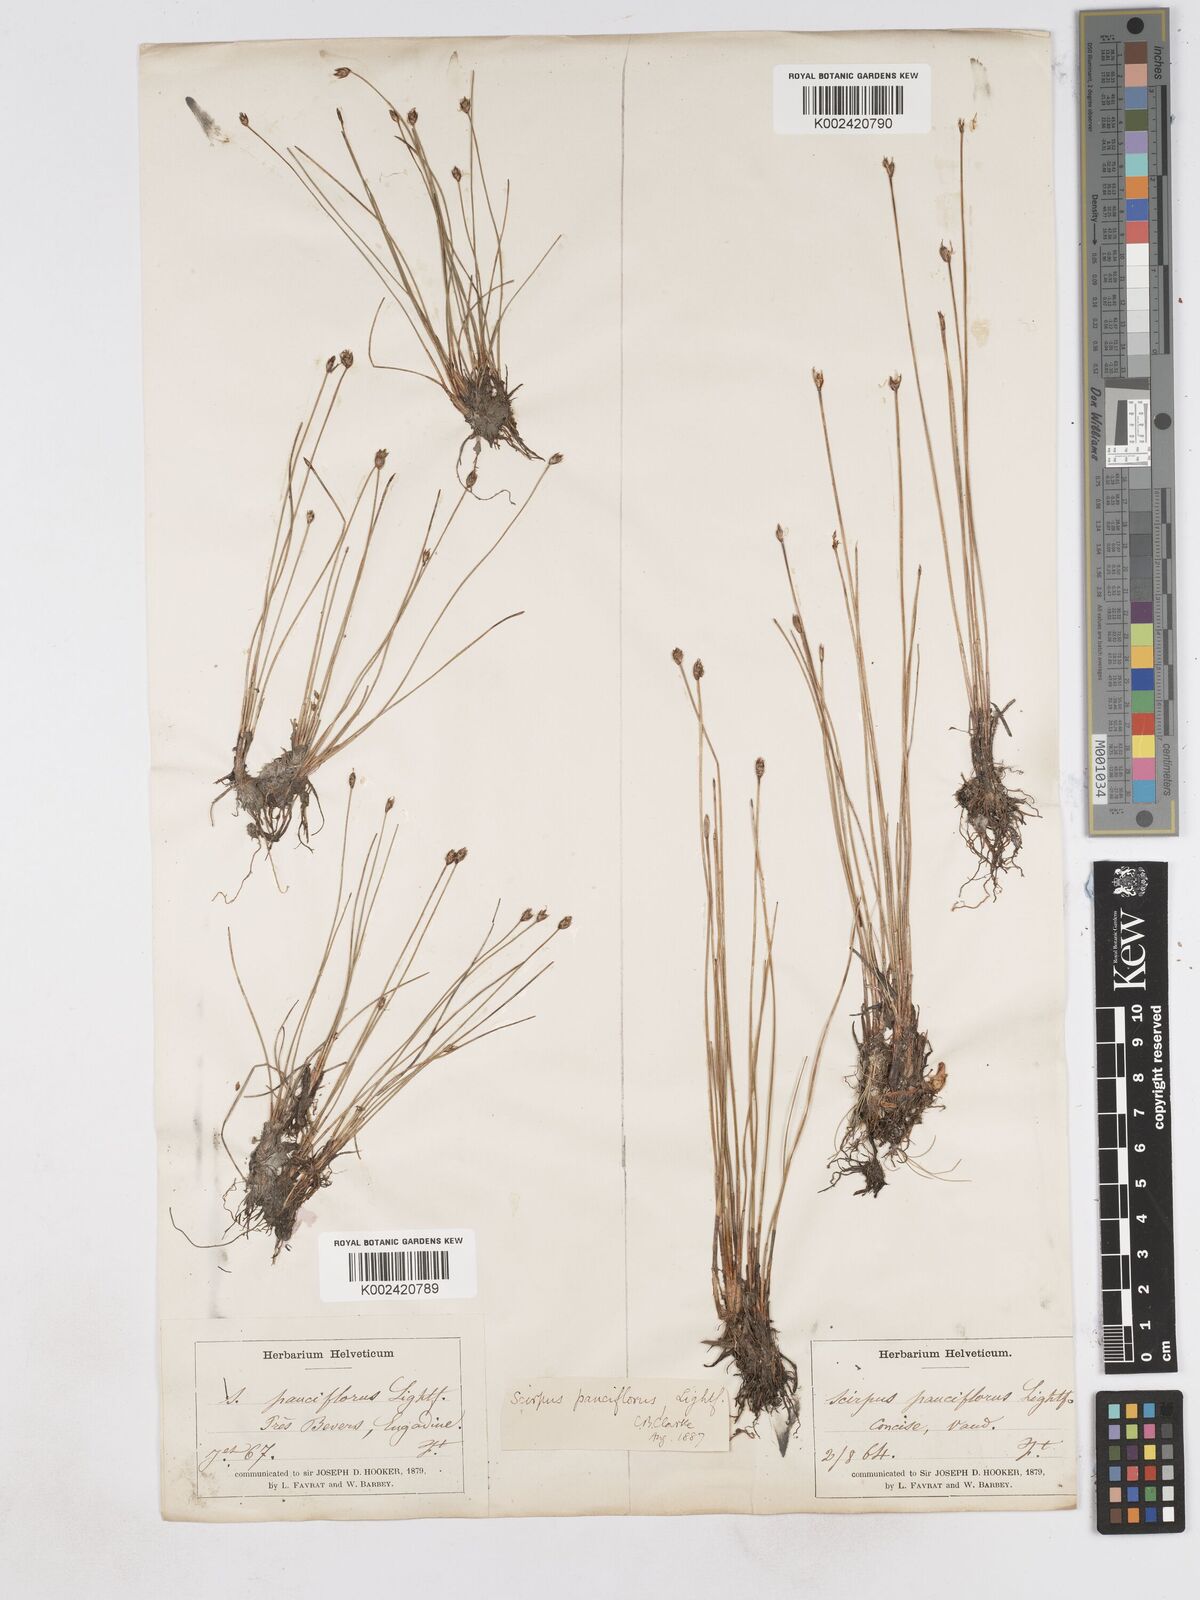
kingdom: Plantae
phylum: Tracheophyta
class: Liliopsida
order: Poales
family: Cyperaceae
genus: Eleocharis
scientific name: Eleocharis quinqueflora
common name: Few-flowered spike-rush
